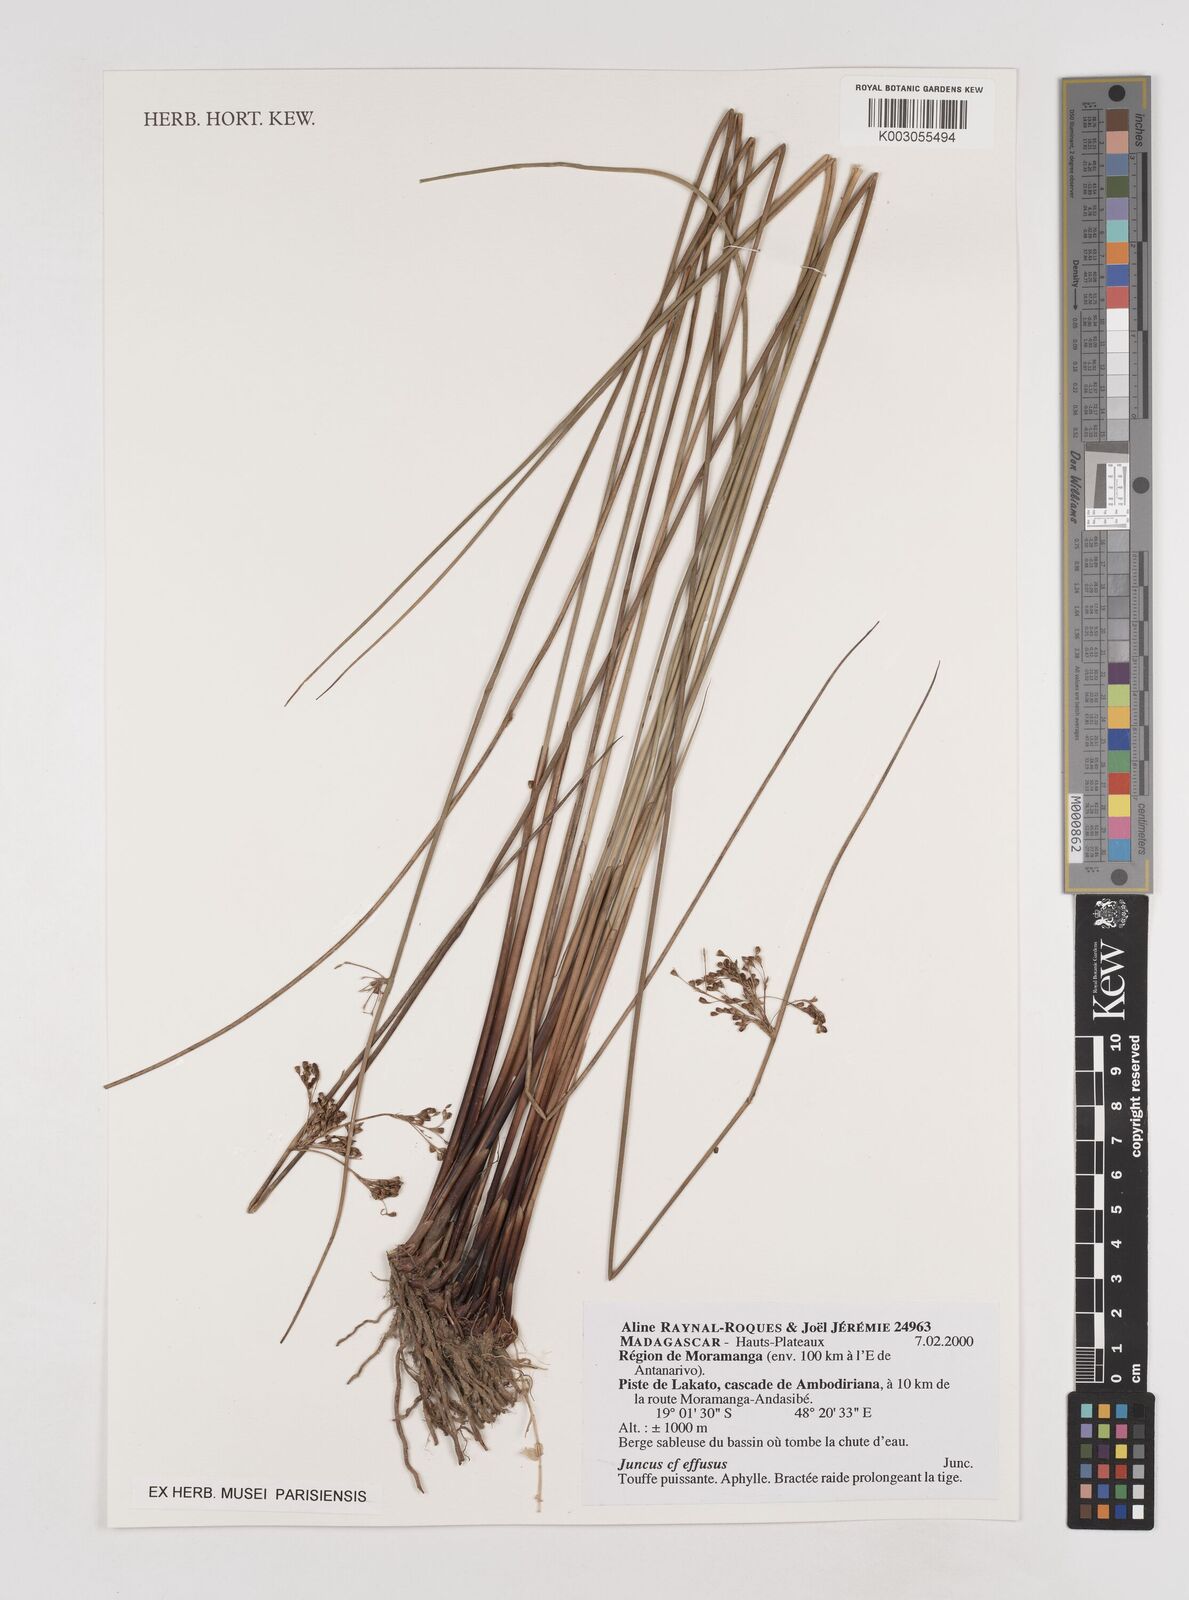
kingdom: Plantae
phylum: Tracheophyta
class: Liliopsida
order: Poales
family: Juncaceae
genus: Juncus
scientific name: Juncus effusus
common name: Soft rush
